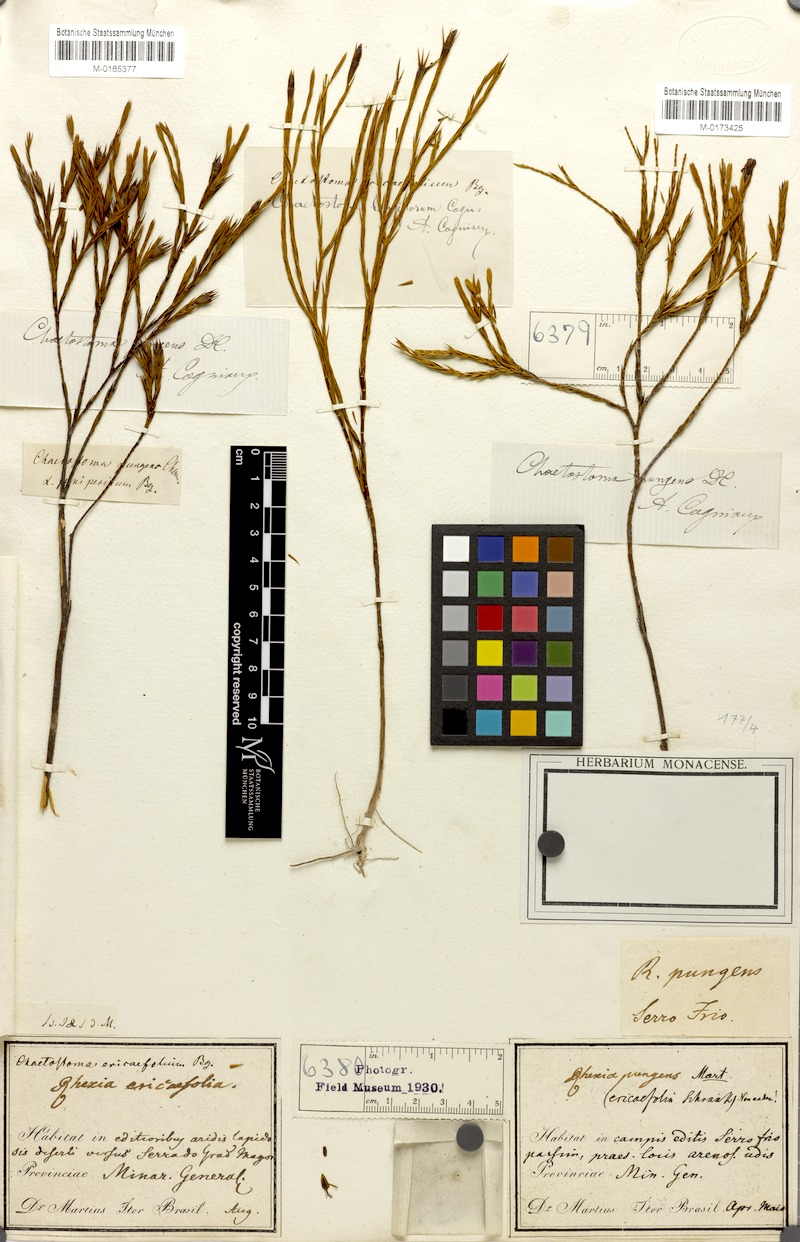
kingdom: Plantae
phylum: Tracheophyta
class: Magnoliopsida
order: Myrtales
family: Melastomataceae
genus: Microlicia
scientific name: Microlicia armata
